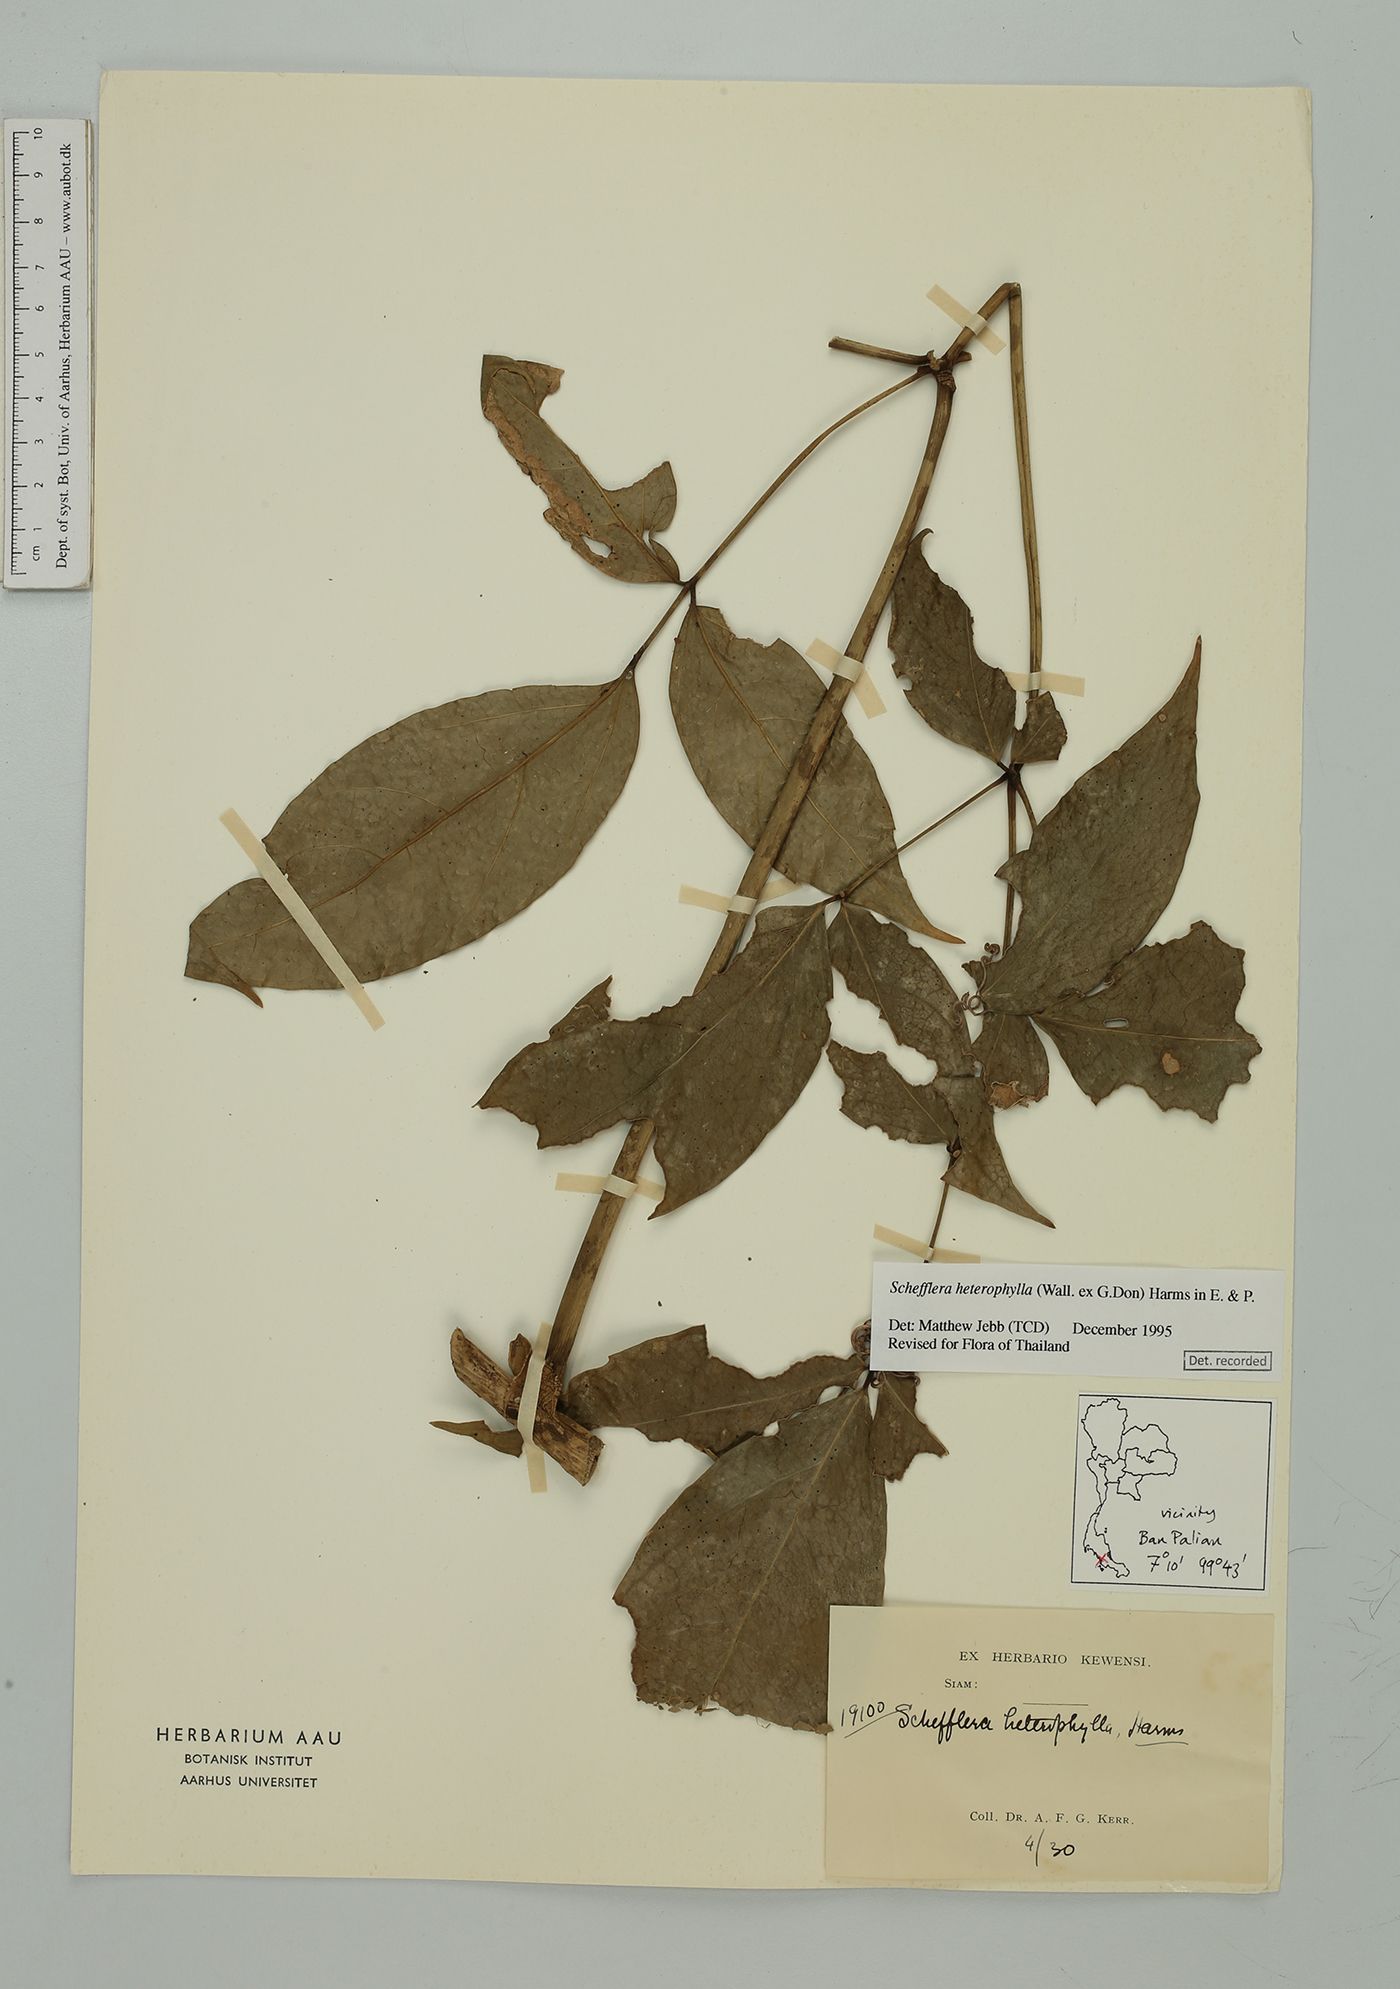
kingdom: Plantae
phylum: Tracheophyta
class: Magnoliopsida
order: Apiales
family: Araliaceae
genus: Heptapleurum
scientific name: Heptapleurum heterophyllum
